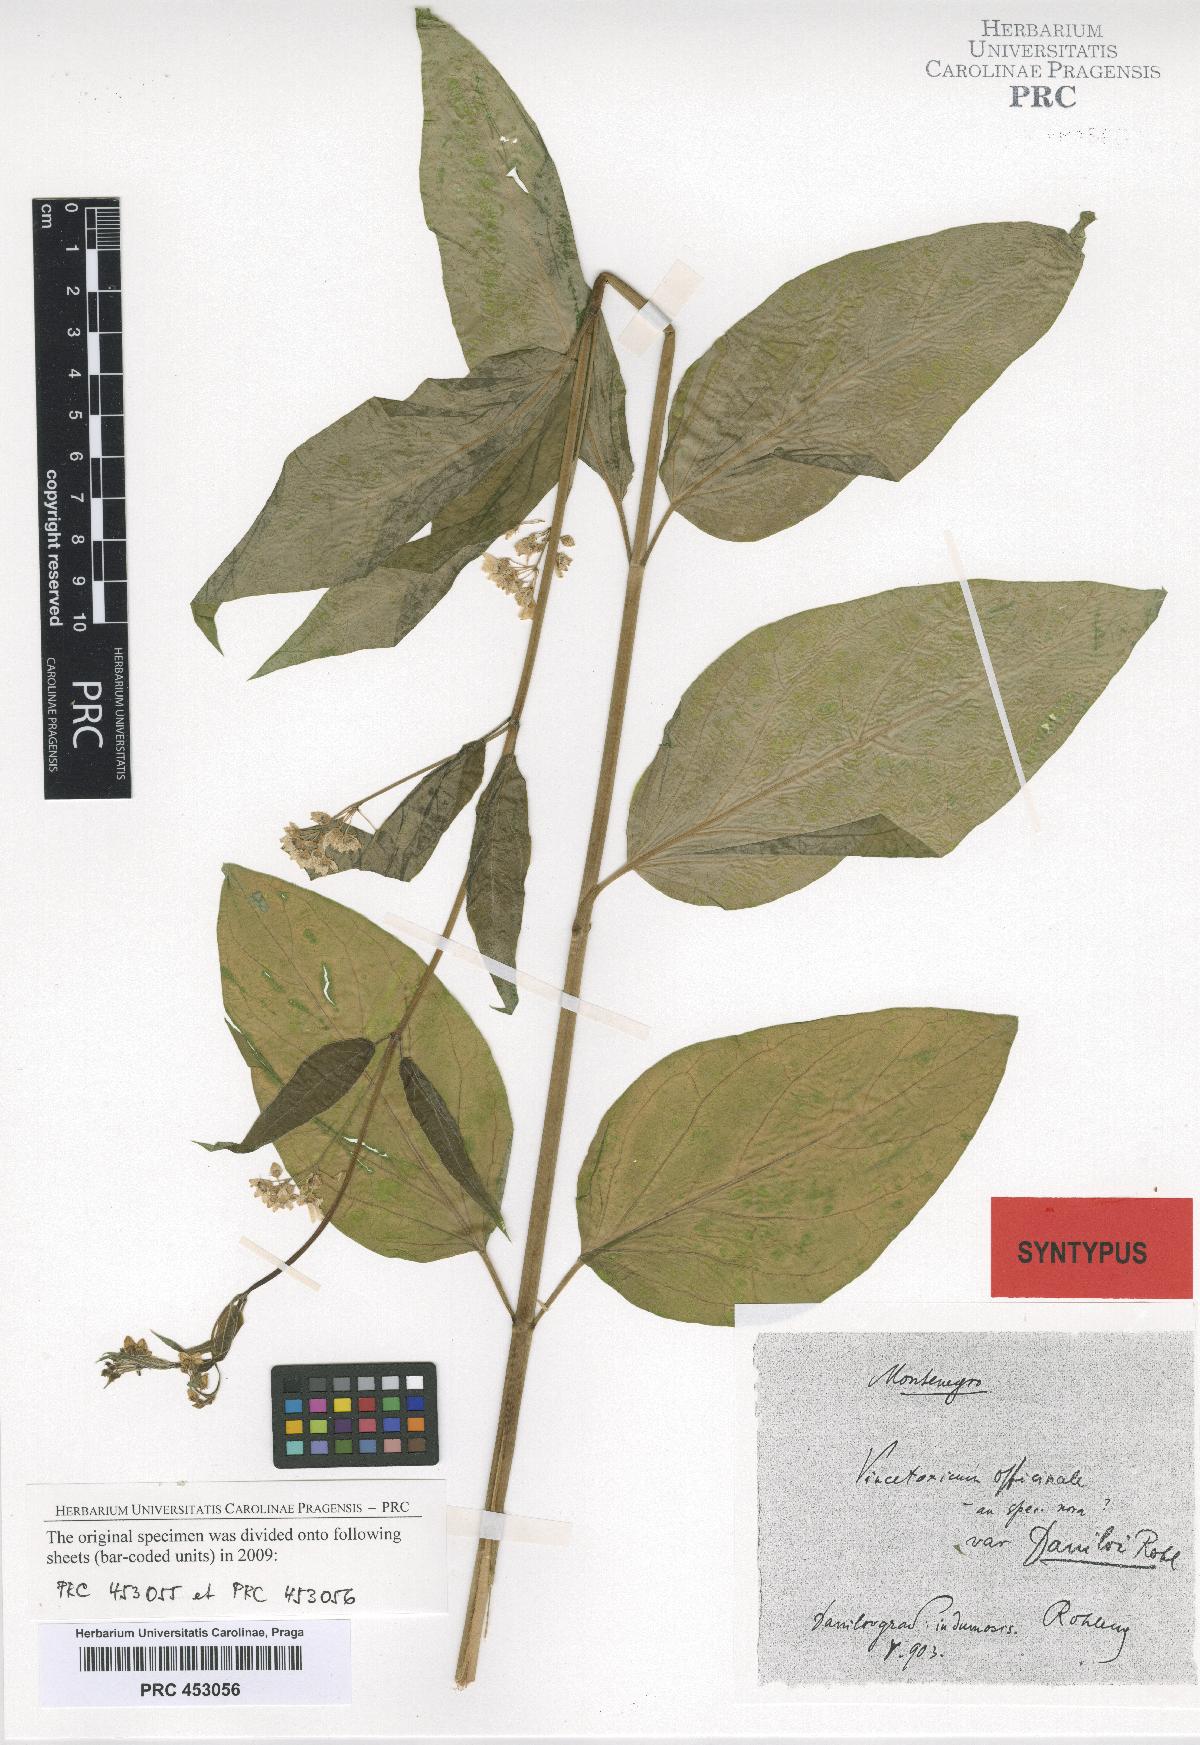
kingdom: Plantae
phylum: Tracheophyta
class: Magnoliopsida
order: Gentianales
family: Apocynaceae
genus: Vincetoxicum
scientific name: Vincetoxicum hirundinaria
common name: White swallowwort
